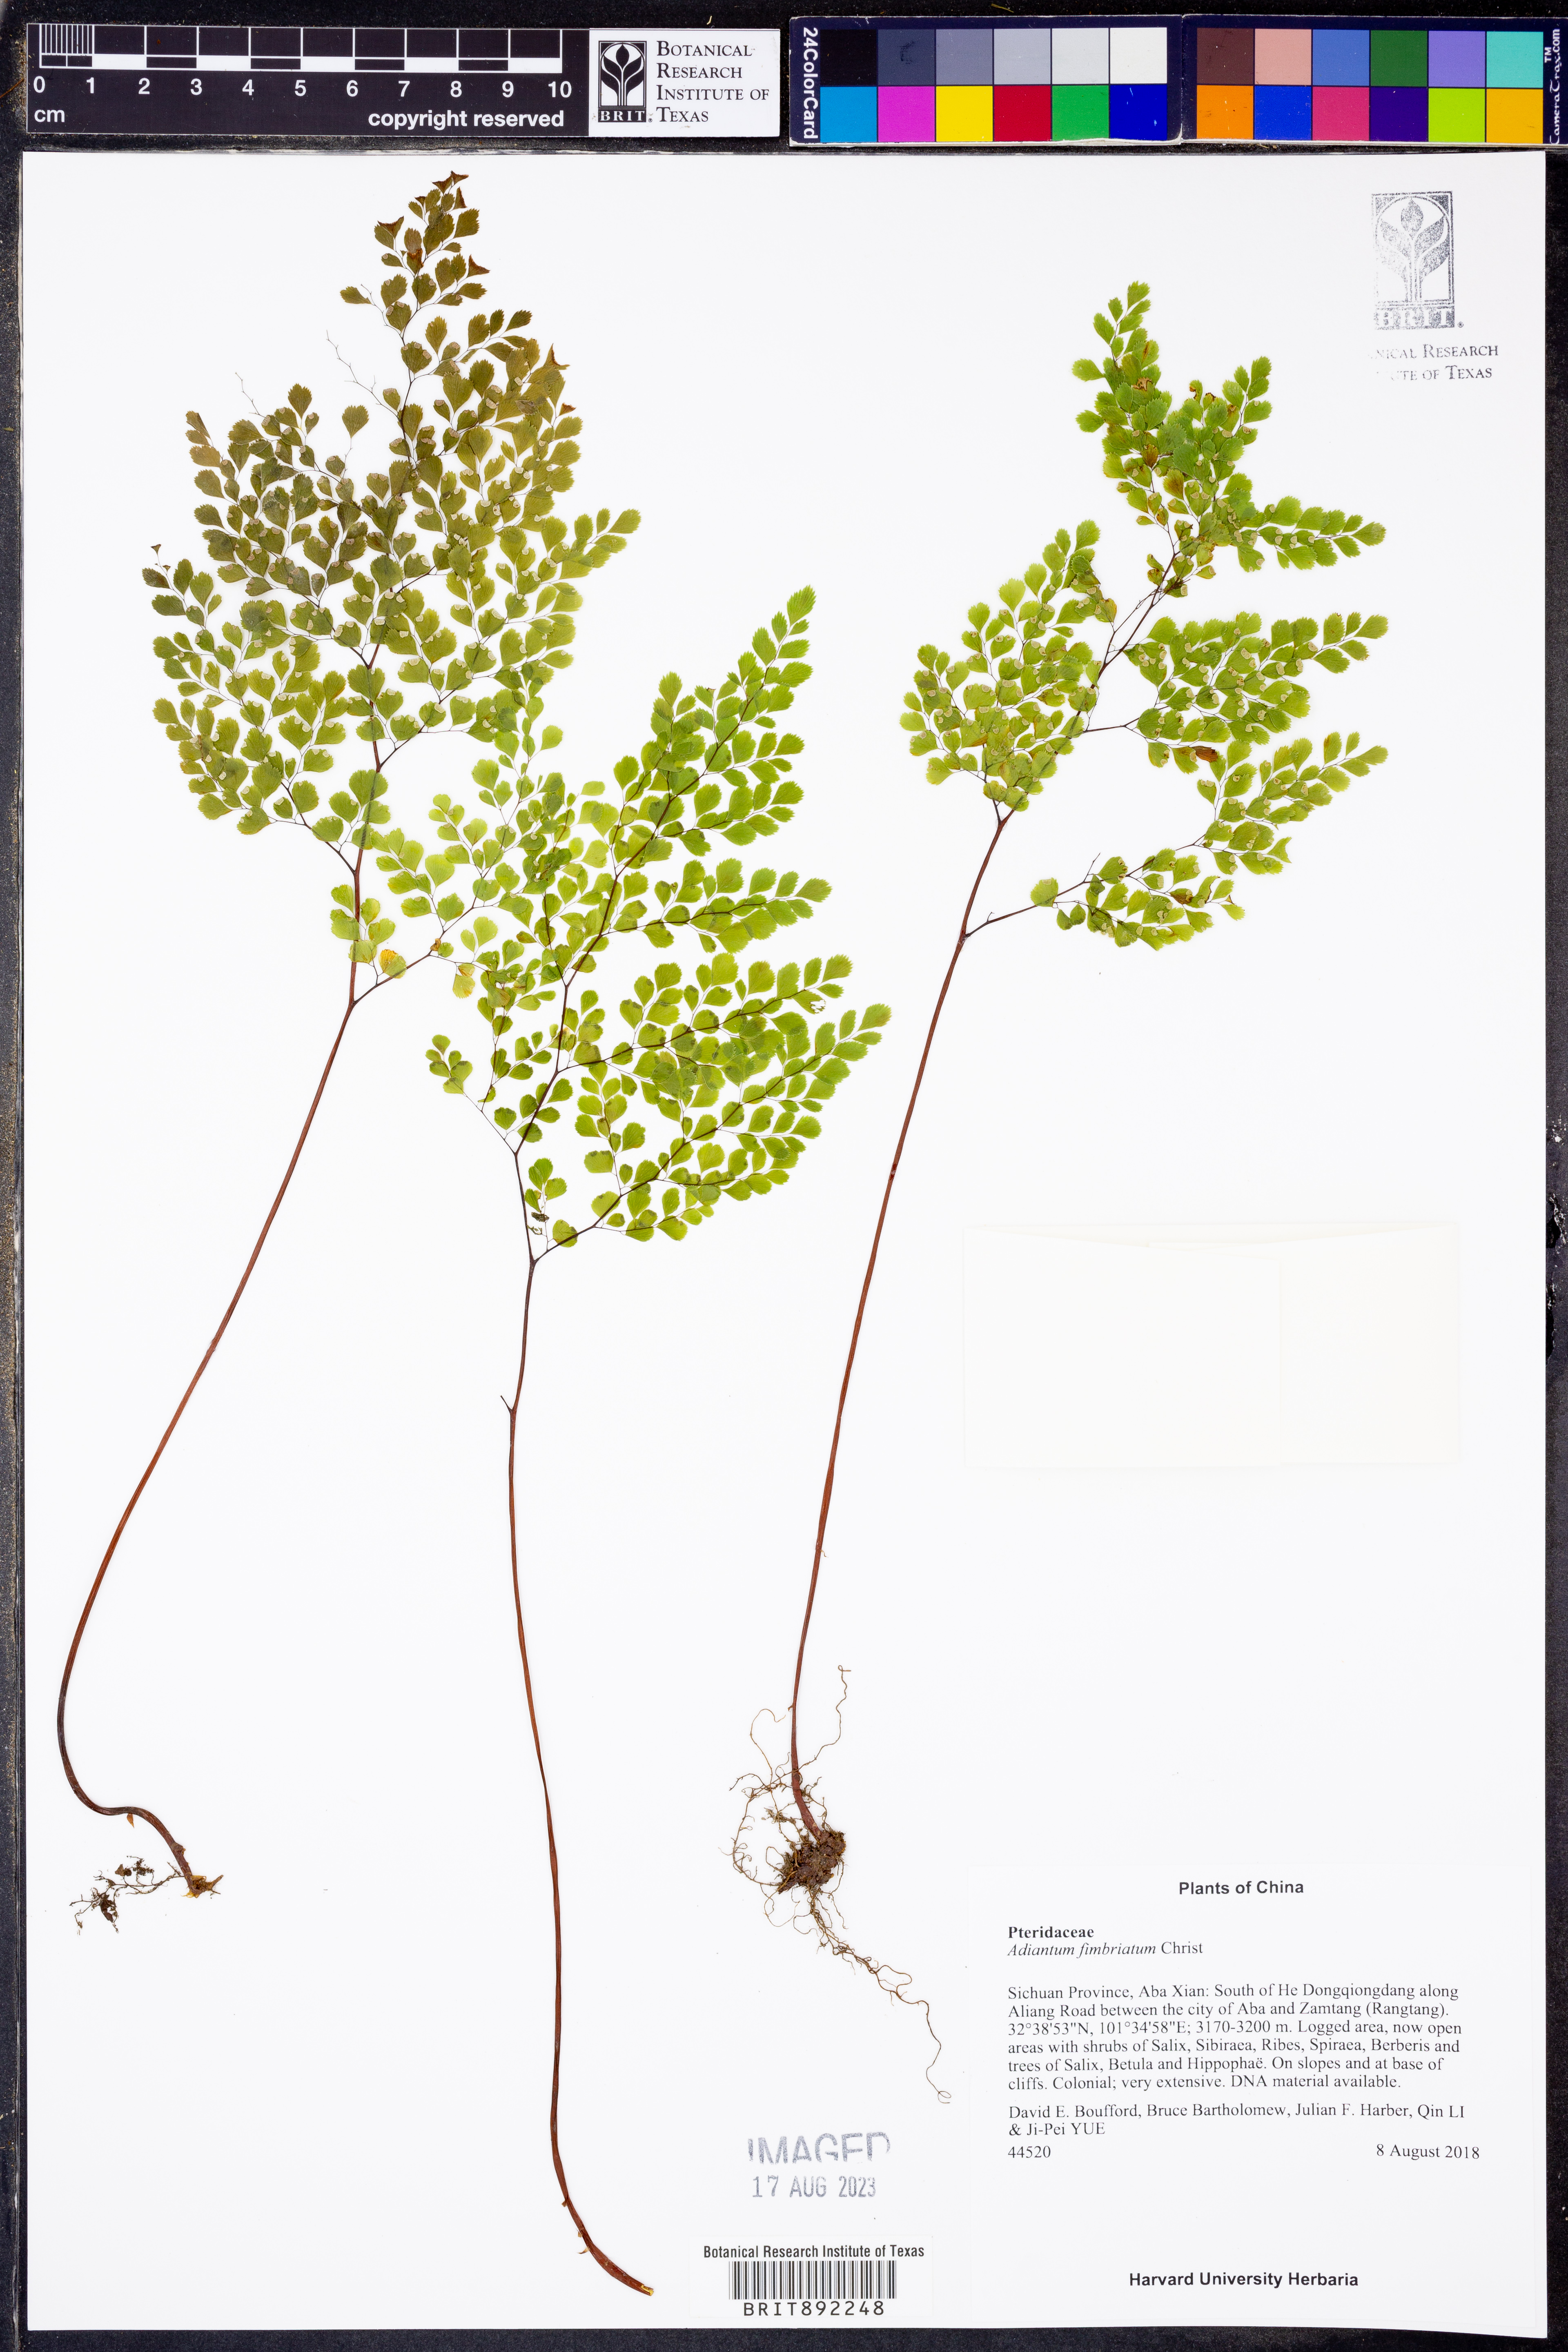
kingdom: Plantae
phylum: Tracheophyta
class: Polypodiopsida
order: Polypodiales
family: Pteridaceae
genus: Adiantum
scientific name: Adiantum venustum
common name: Evergreen maidenhair
